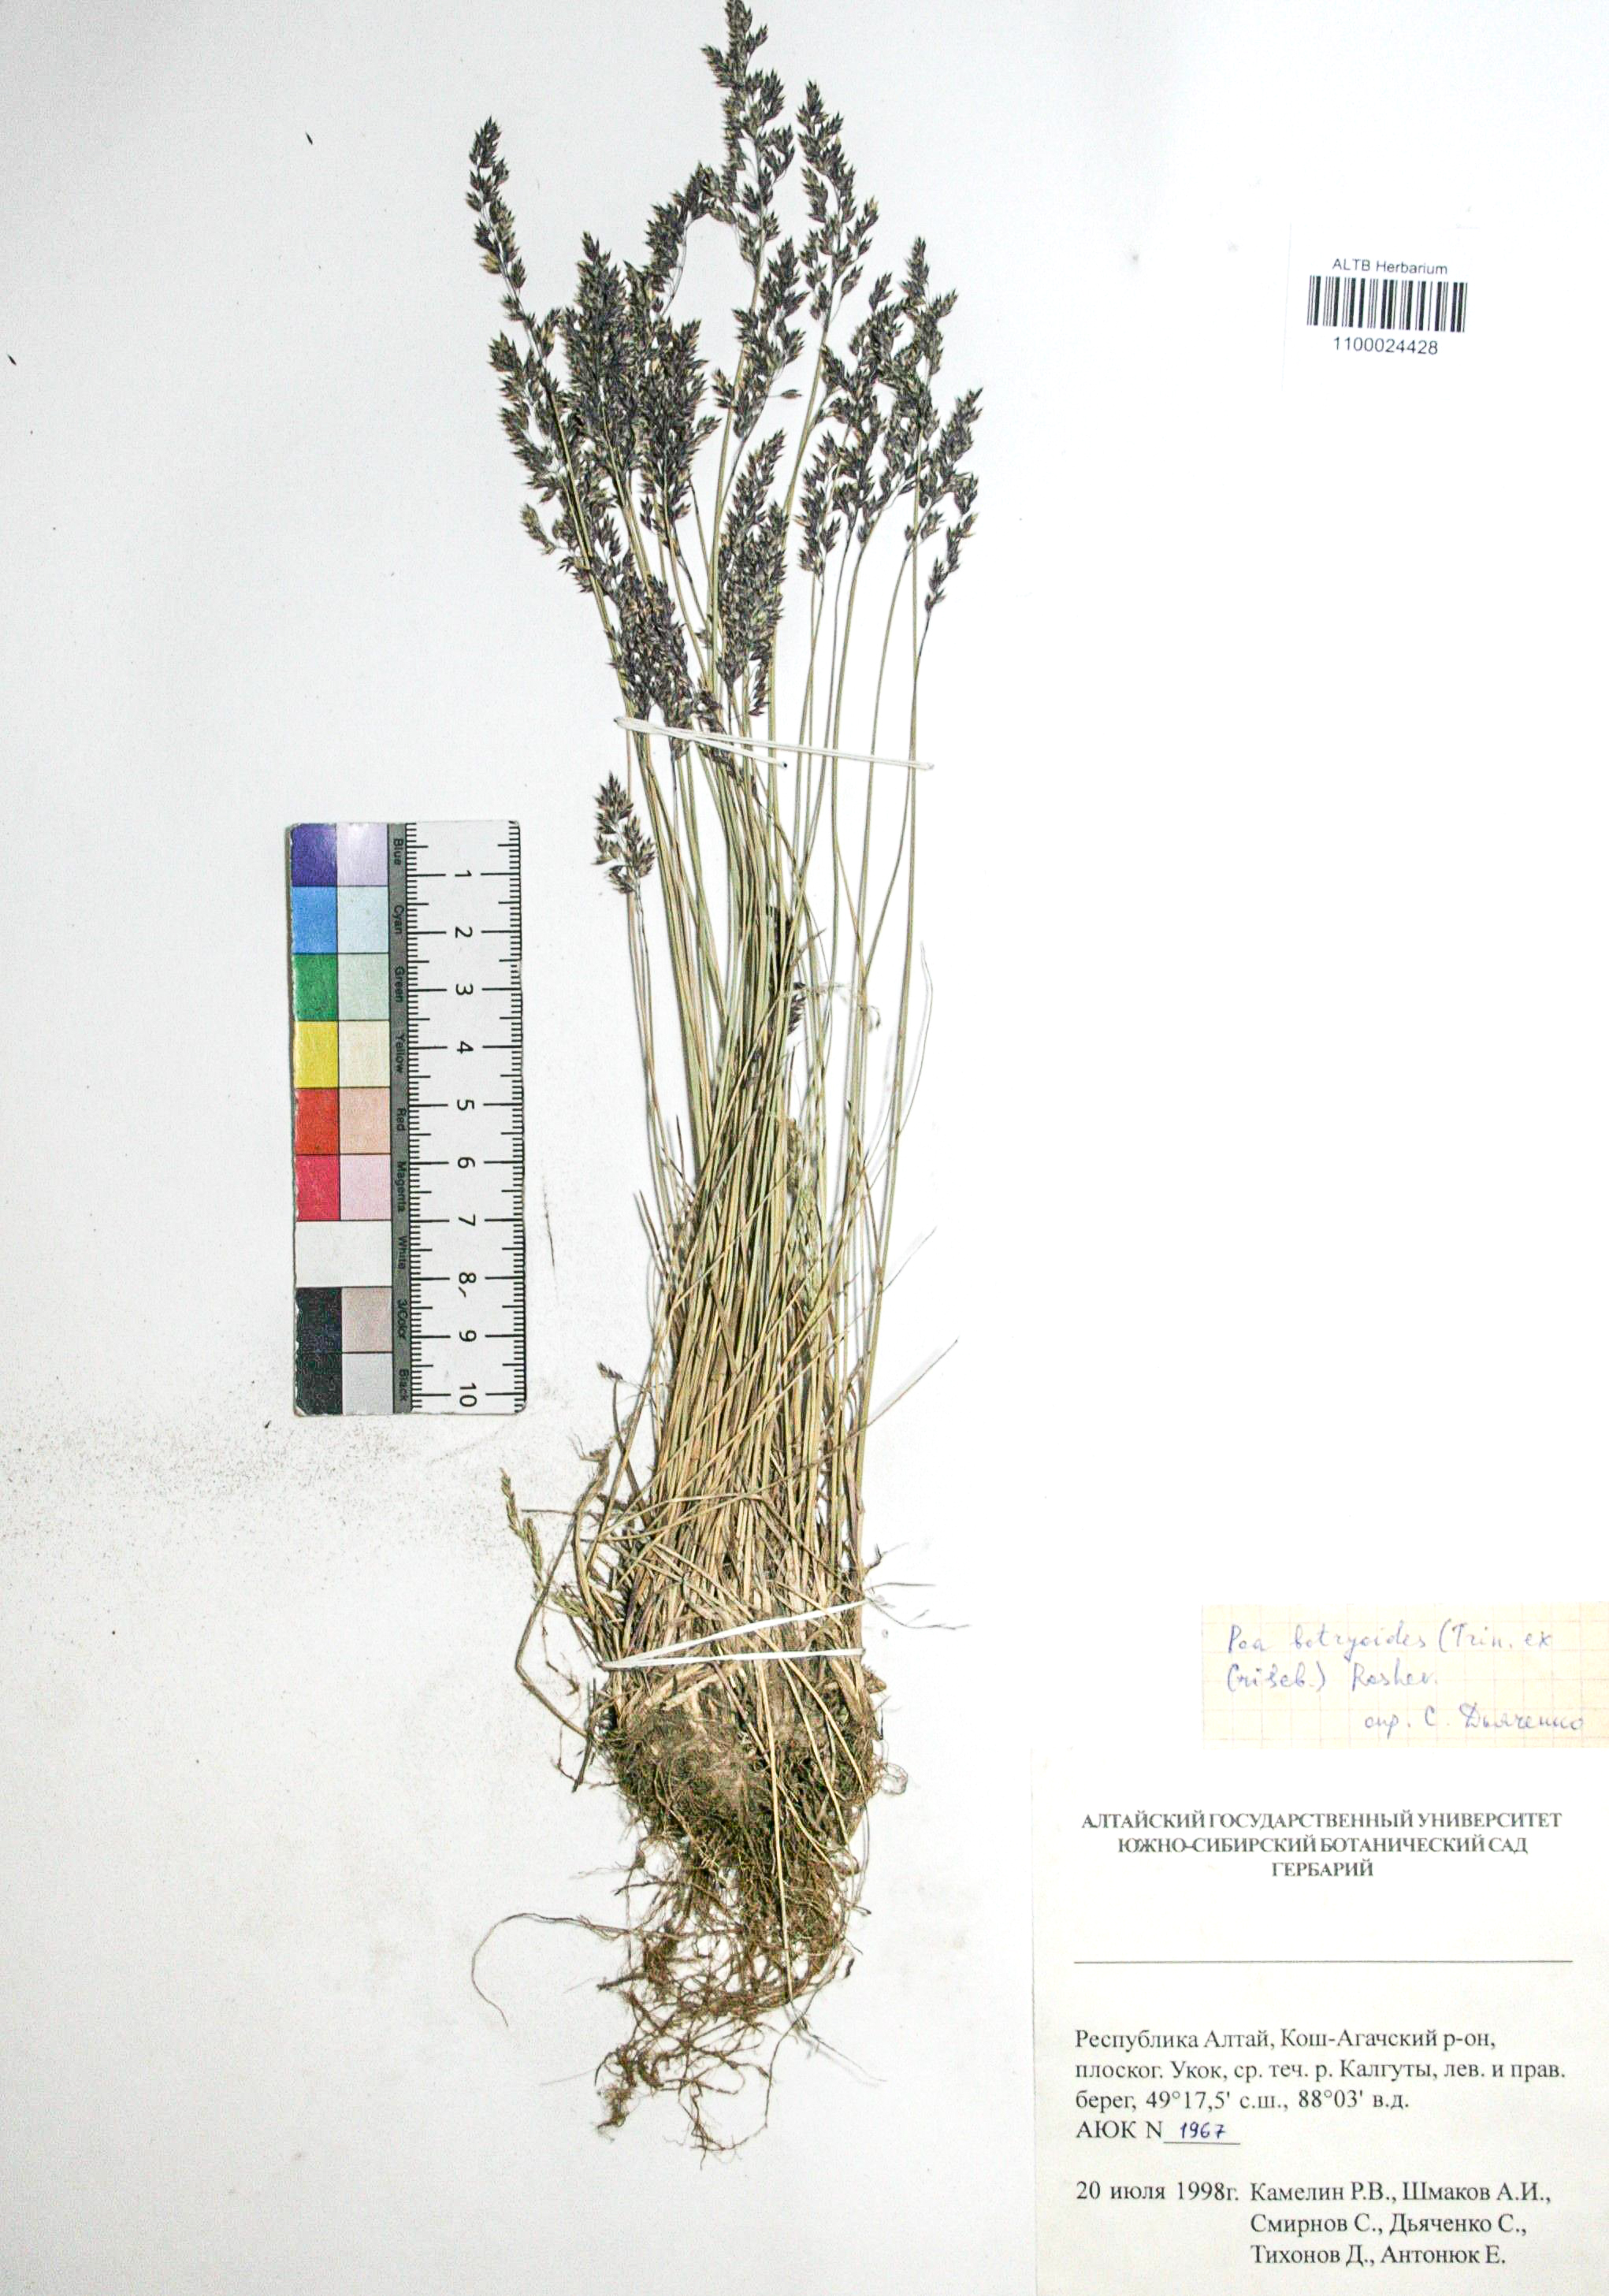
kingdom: Plantae
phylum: Tracheophyta
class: Liliopsida
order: Poales
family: Poaceae
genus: Poa
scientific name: Poa attenuata
